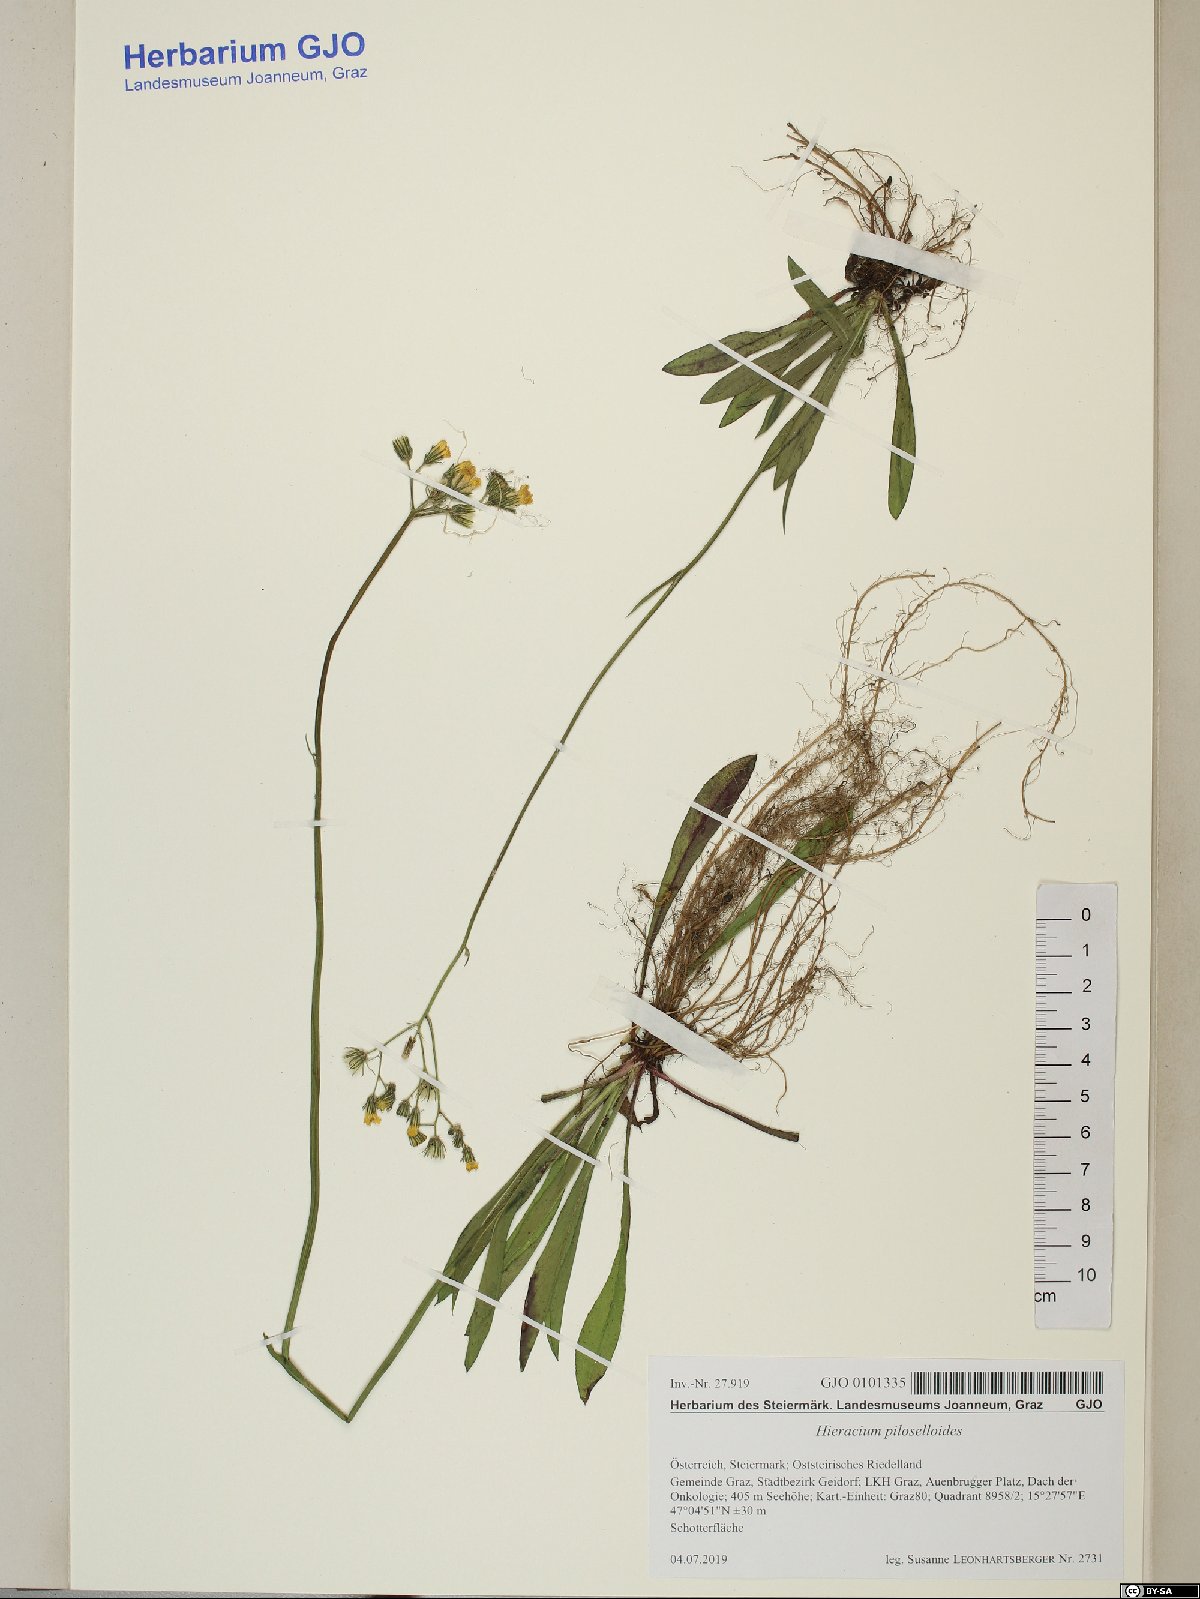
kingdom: Plantae
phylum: Tracheophyta
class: Magnoliopsida
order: Asterales
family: Asteraceae
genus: Pilosella
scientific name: Pilosella piloselloides
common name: Glaucous king-devil
